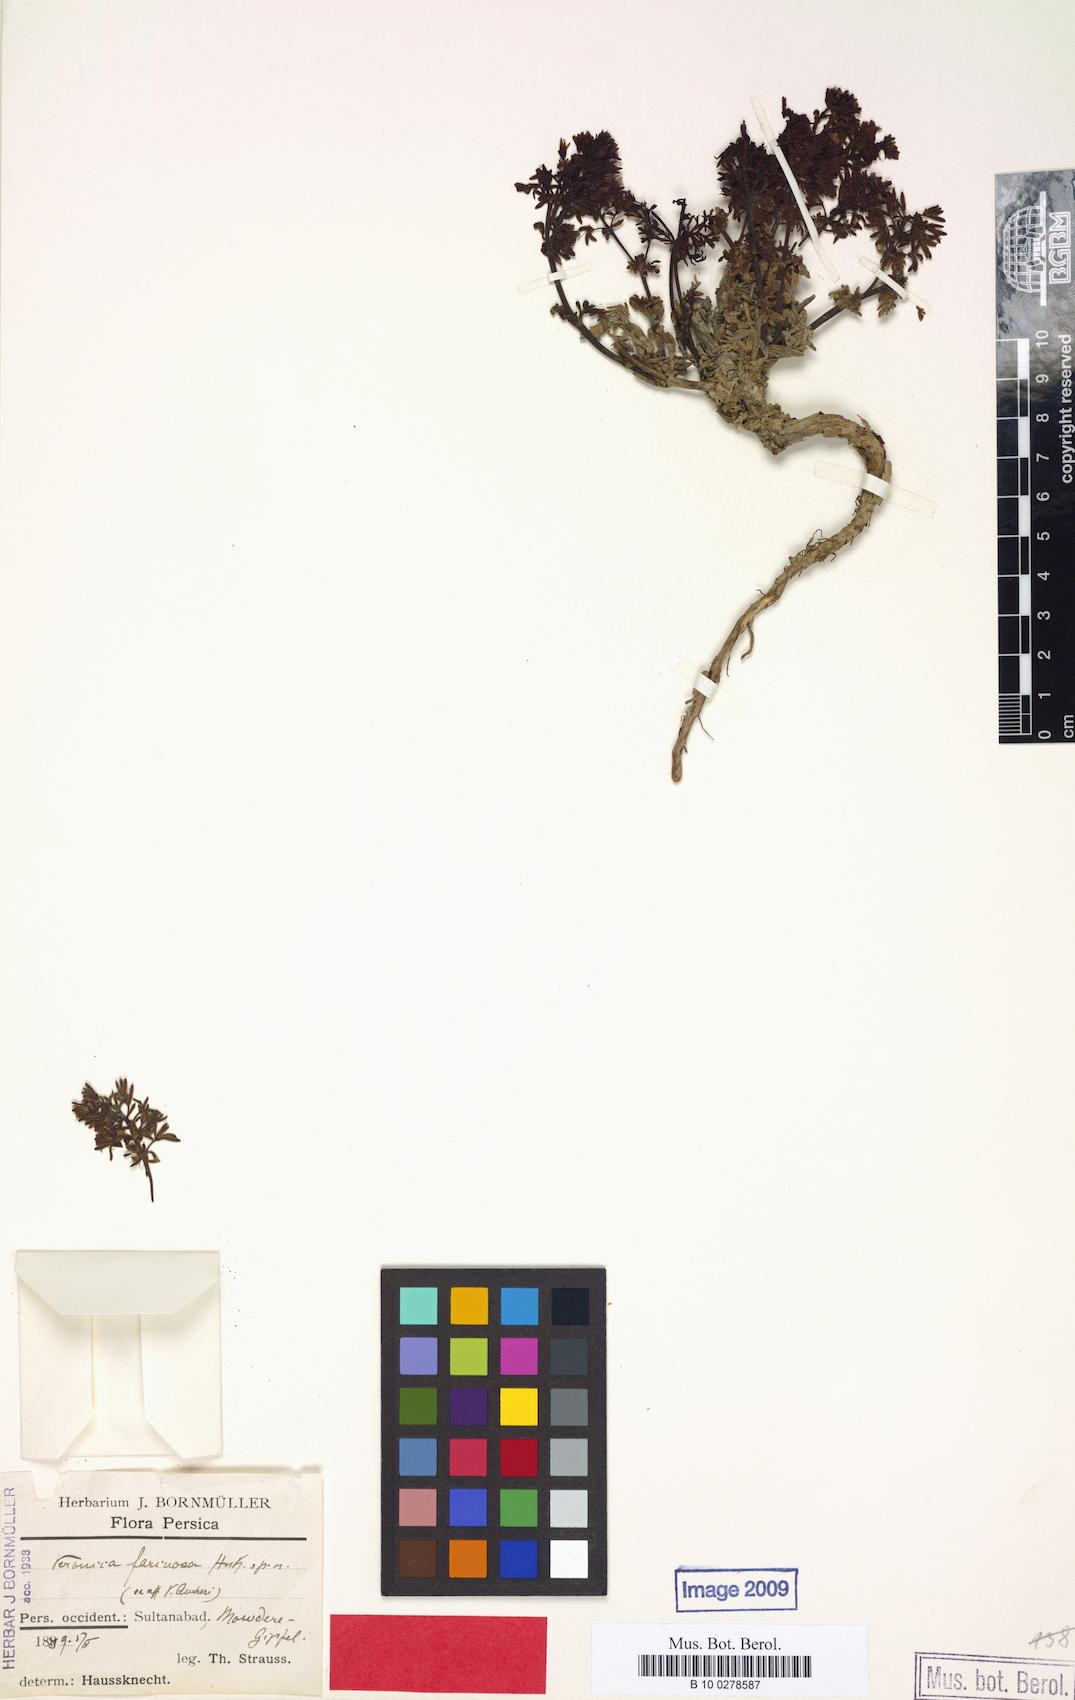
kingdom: Plantae
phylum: Tracheophyta
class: Magnoliopsida
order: Lamiales
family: Plantaginaceae
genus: Veronica
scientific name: Veronica farinosa
